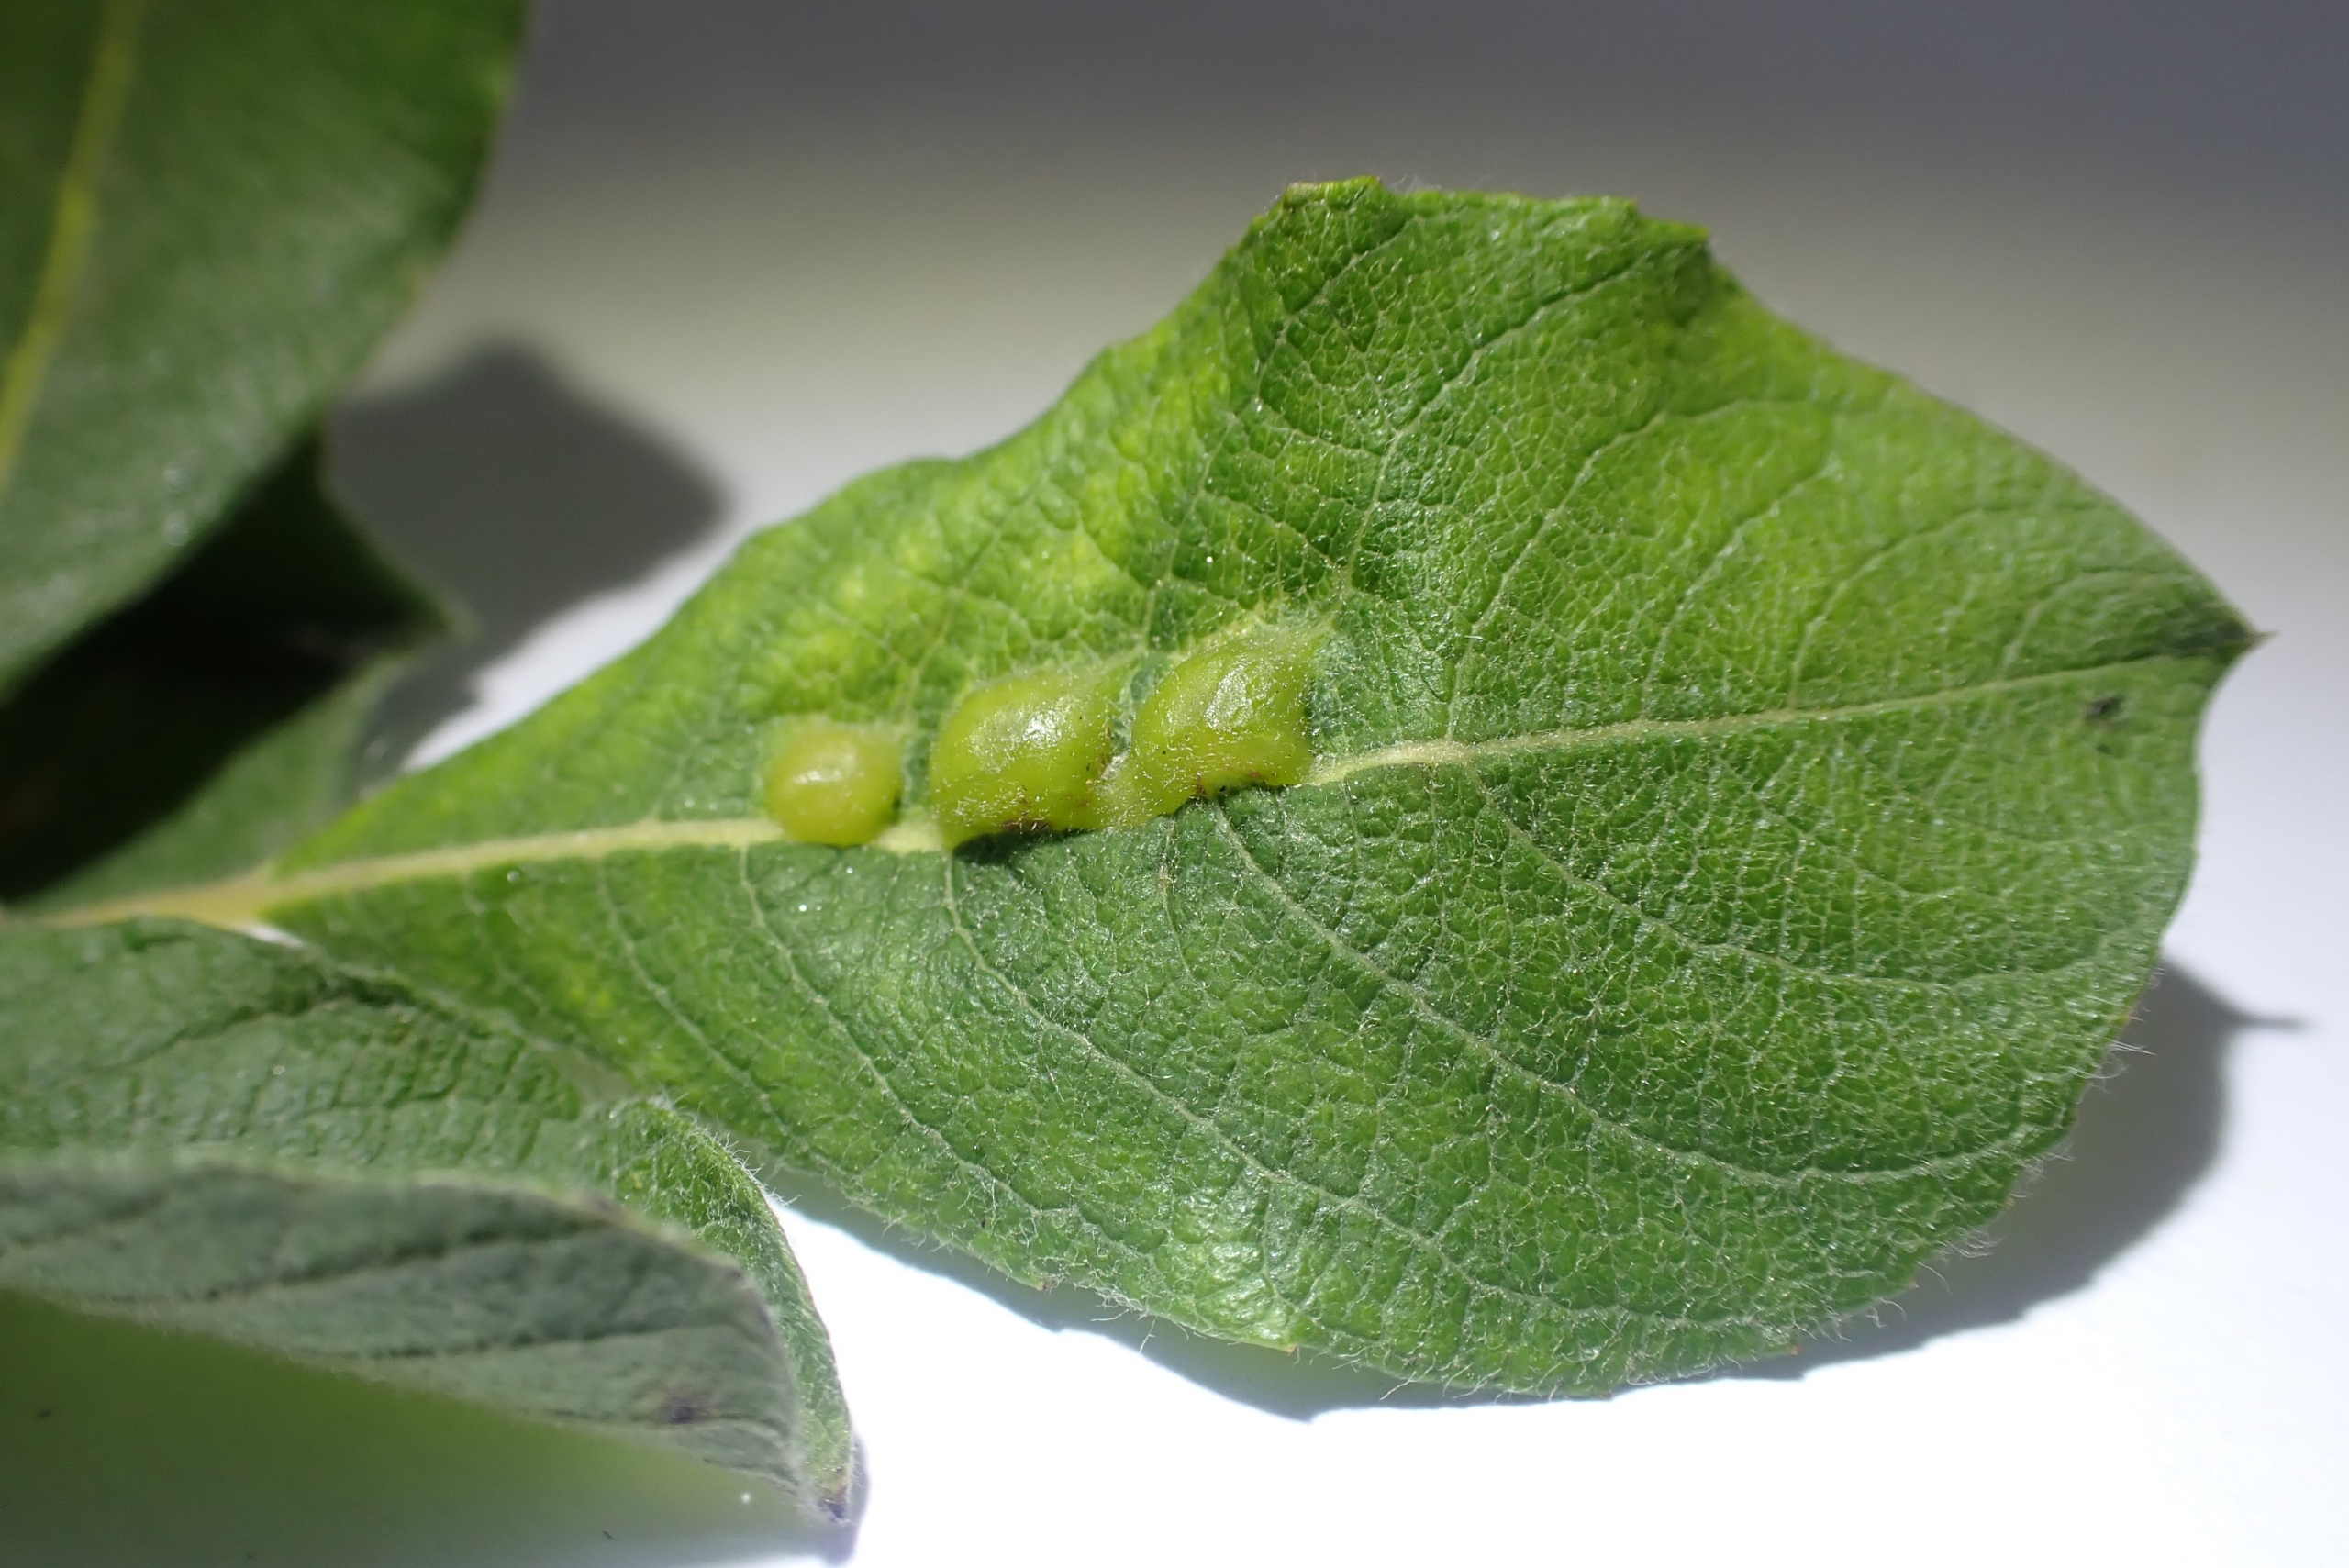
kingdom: Animalia
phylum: Arthropoda
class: Insecta
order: Diptera
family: Cecidomyiidae
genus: Iteomyia
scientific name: Iteomyia major
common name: Stor seljebladgalmyg
